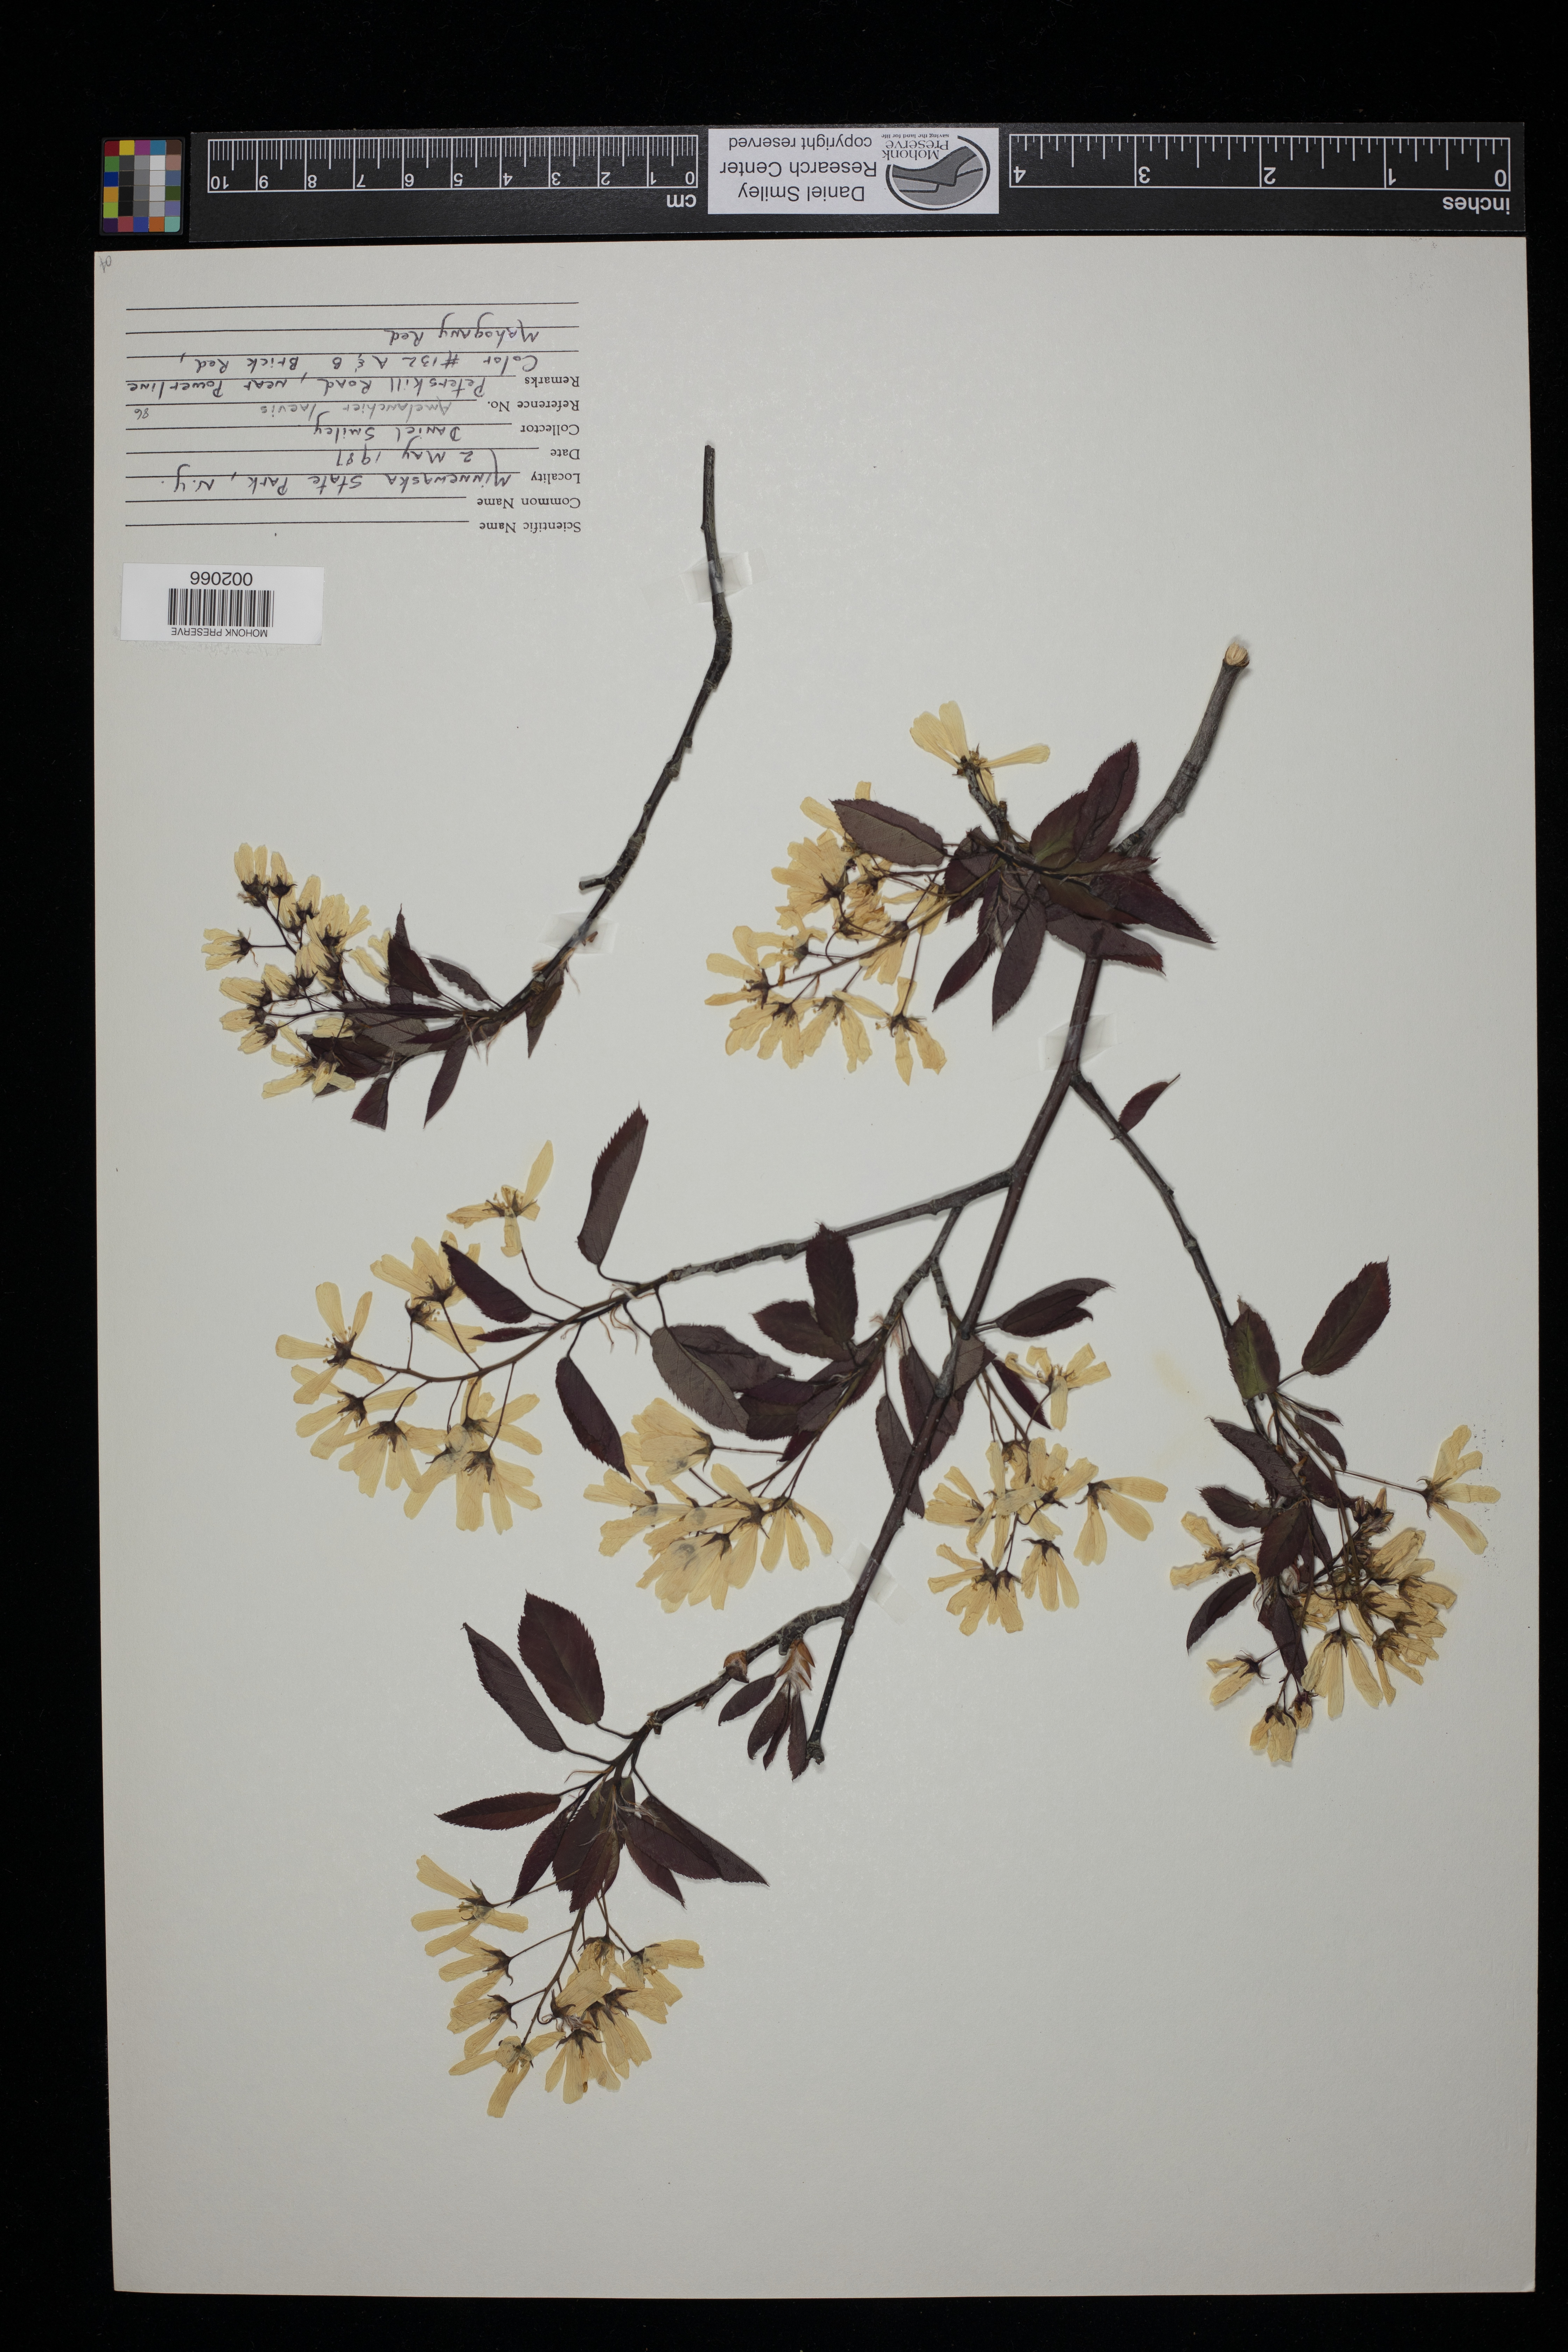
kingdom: Plantae
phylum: Tracheophyta
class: Magnoliopsida
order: Rosales
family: Rosaceae
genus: Amelanchier
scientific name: Amelanchier laevis
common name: Allegheny serviceberry
